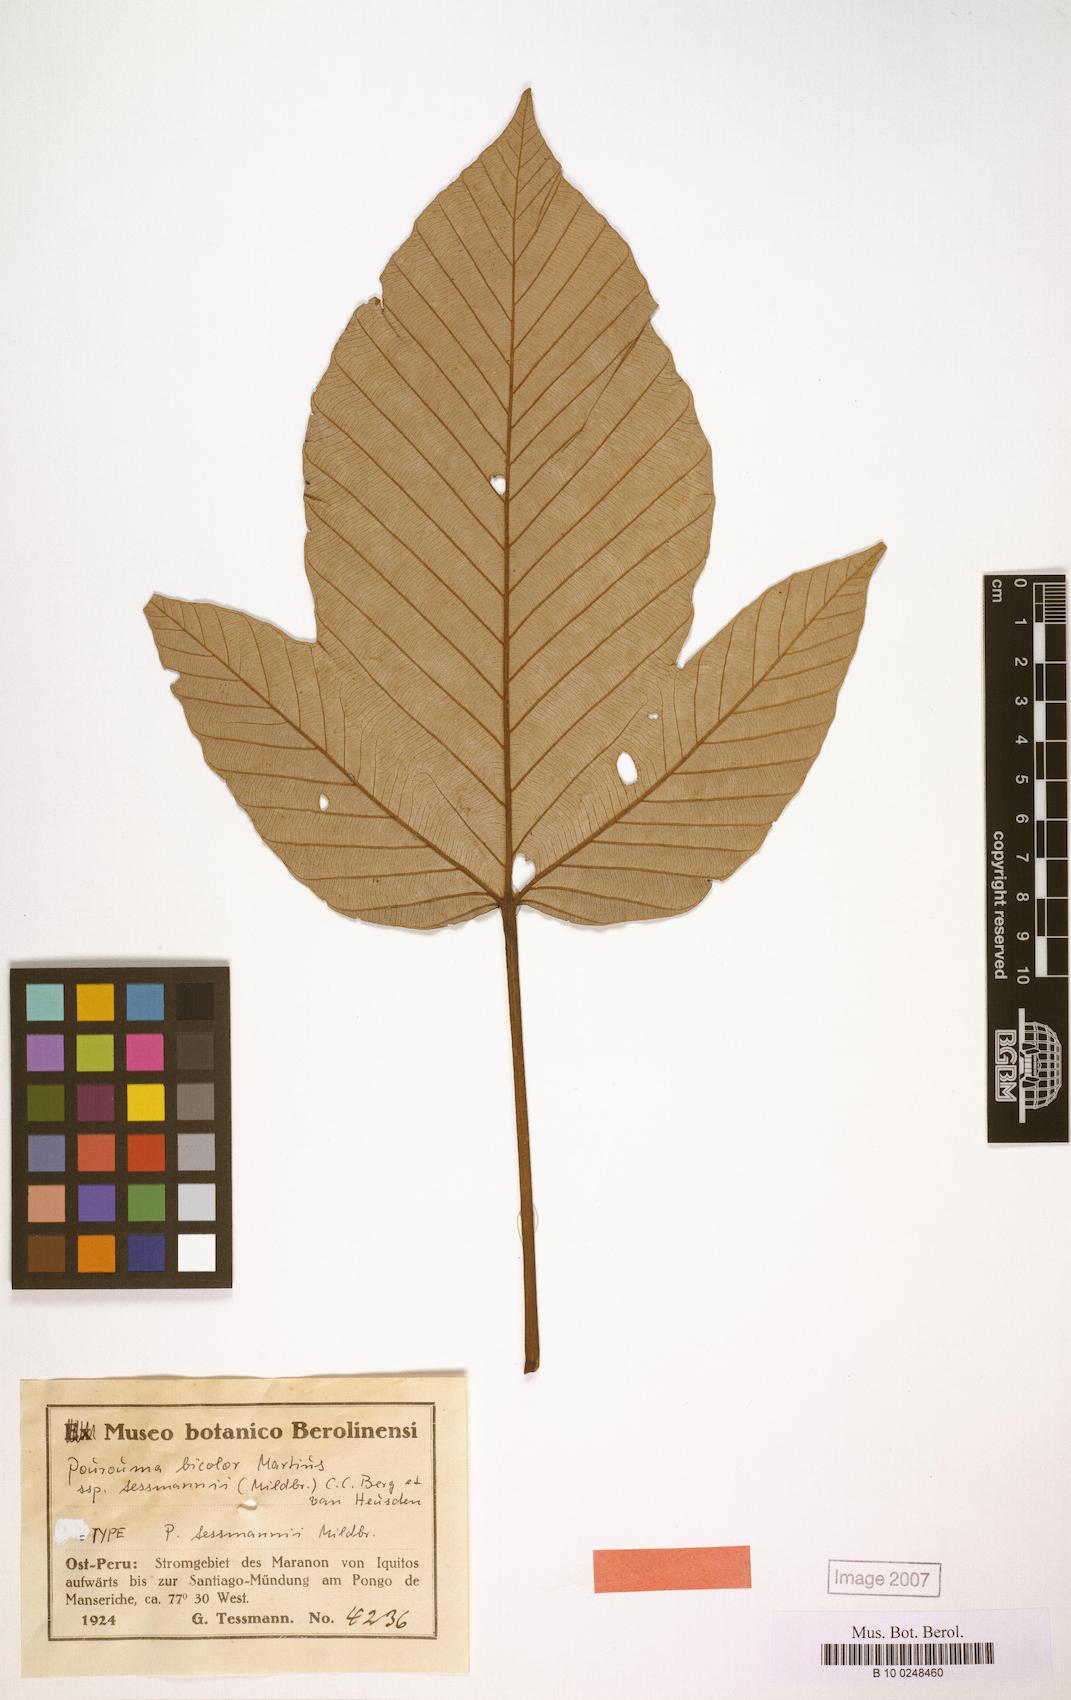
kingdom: Plantae
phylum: Tracheophyta
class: Magnoliopsida
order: Rosales
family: Urticaceae
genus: Pourouma
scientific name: Pourouma bicolor
